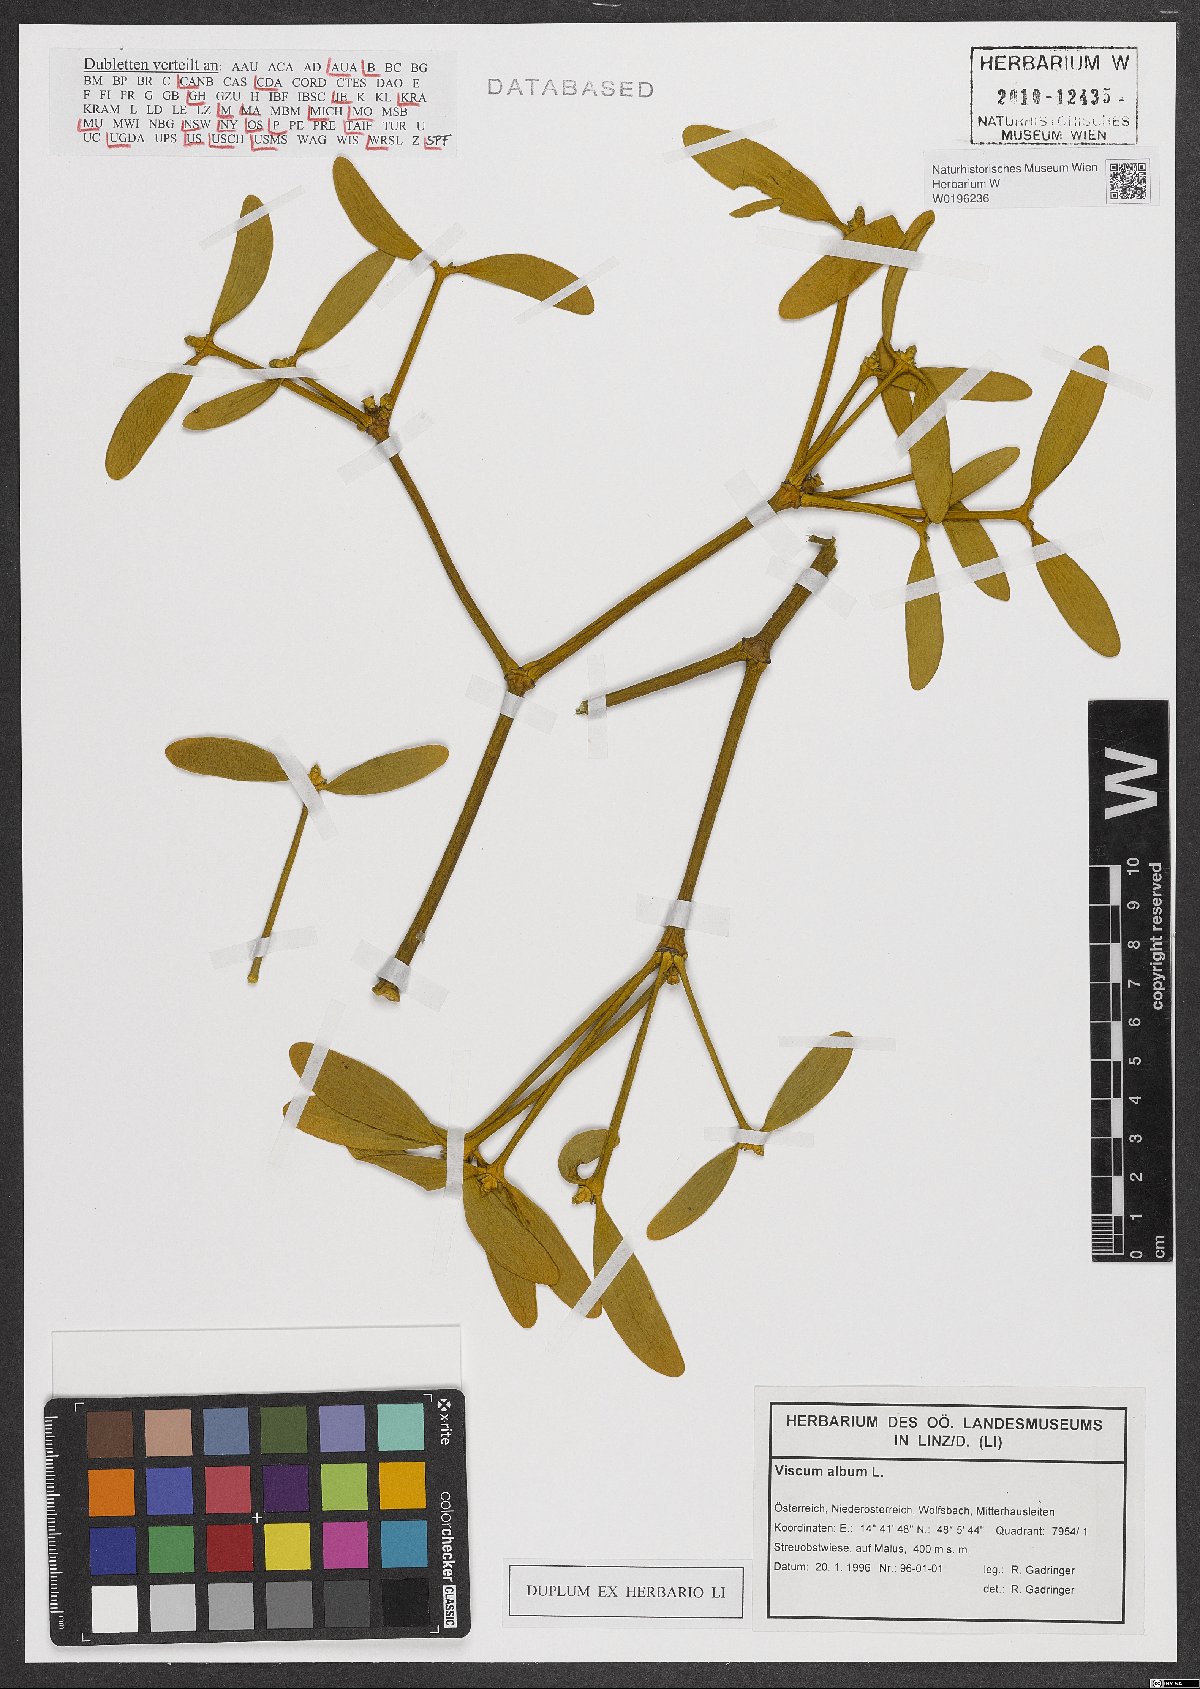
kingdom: Plantae
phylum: Tracheophyta
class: Magnoliopsida
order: Santalales
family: Viscaceae
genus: Viscum
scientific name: Viscum album
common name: Mistletoe
